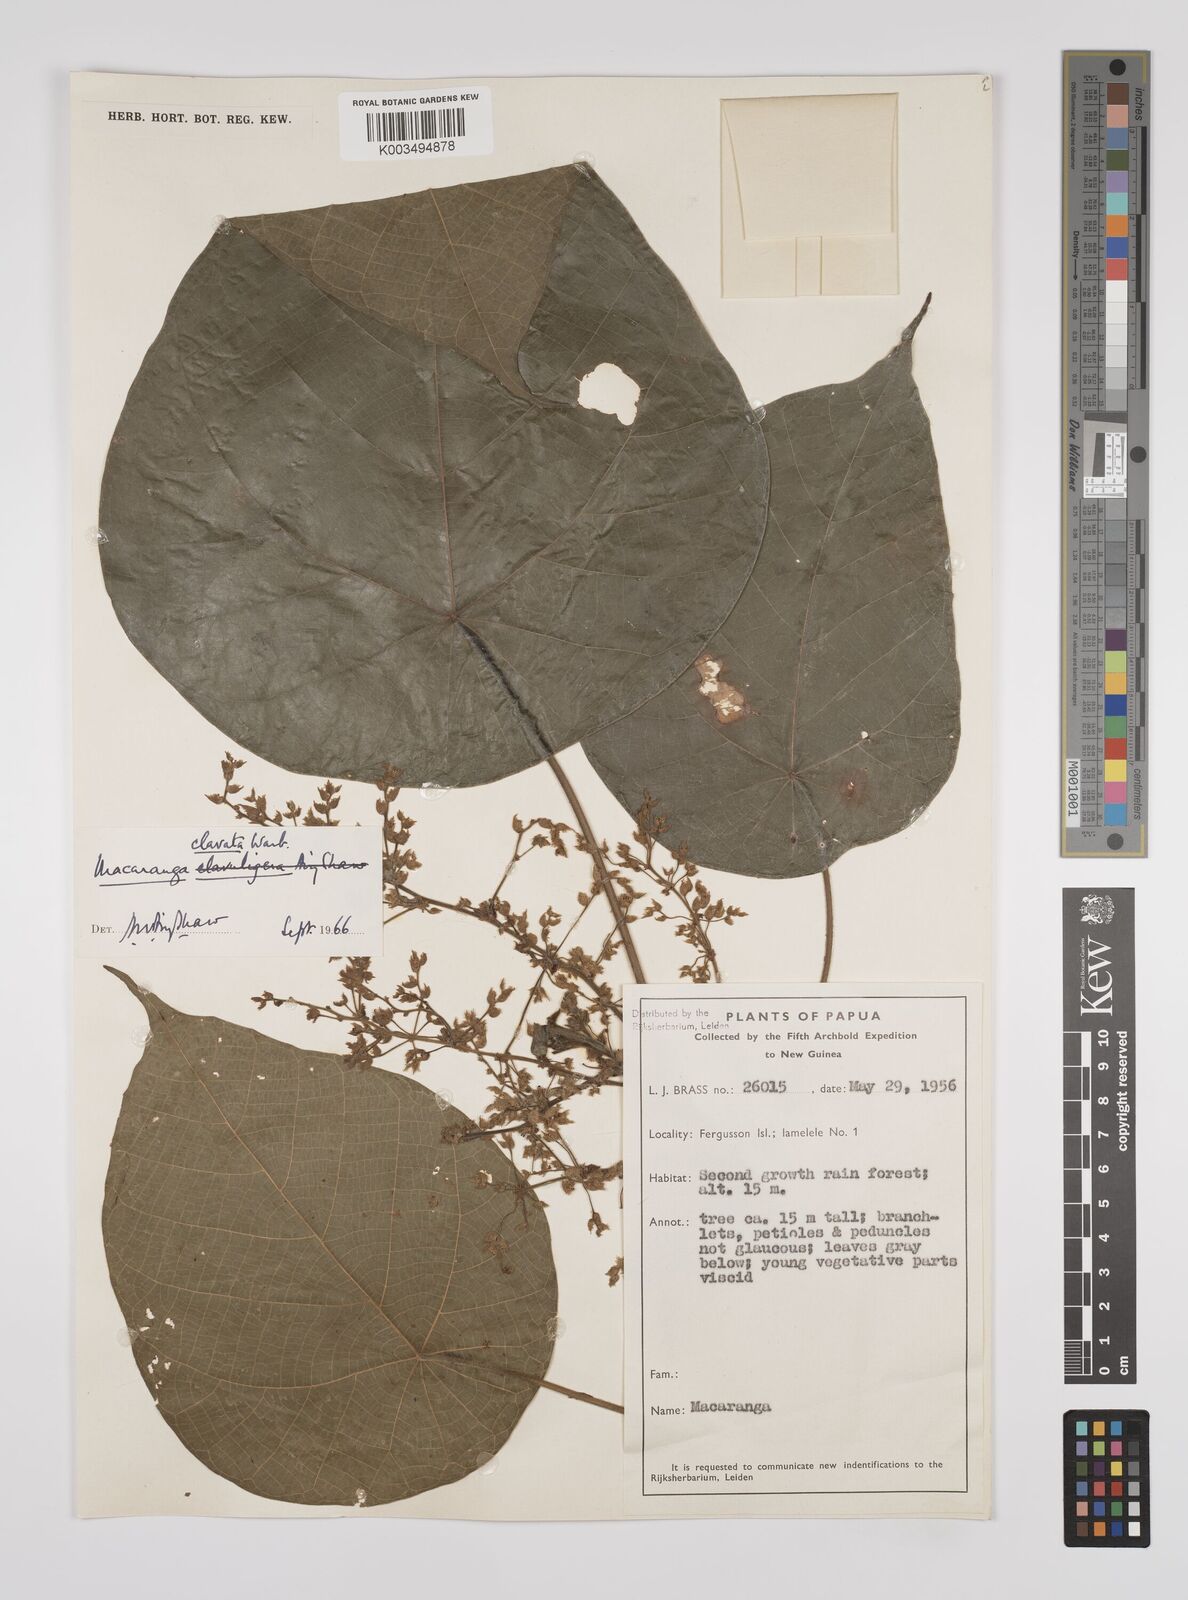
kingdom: Plantae
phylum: Tracheophyta
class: Magnoliopsida
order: Malpighiales
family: Euphorbiaceae
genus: Macaranga
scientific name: Macaranga clavata
